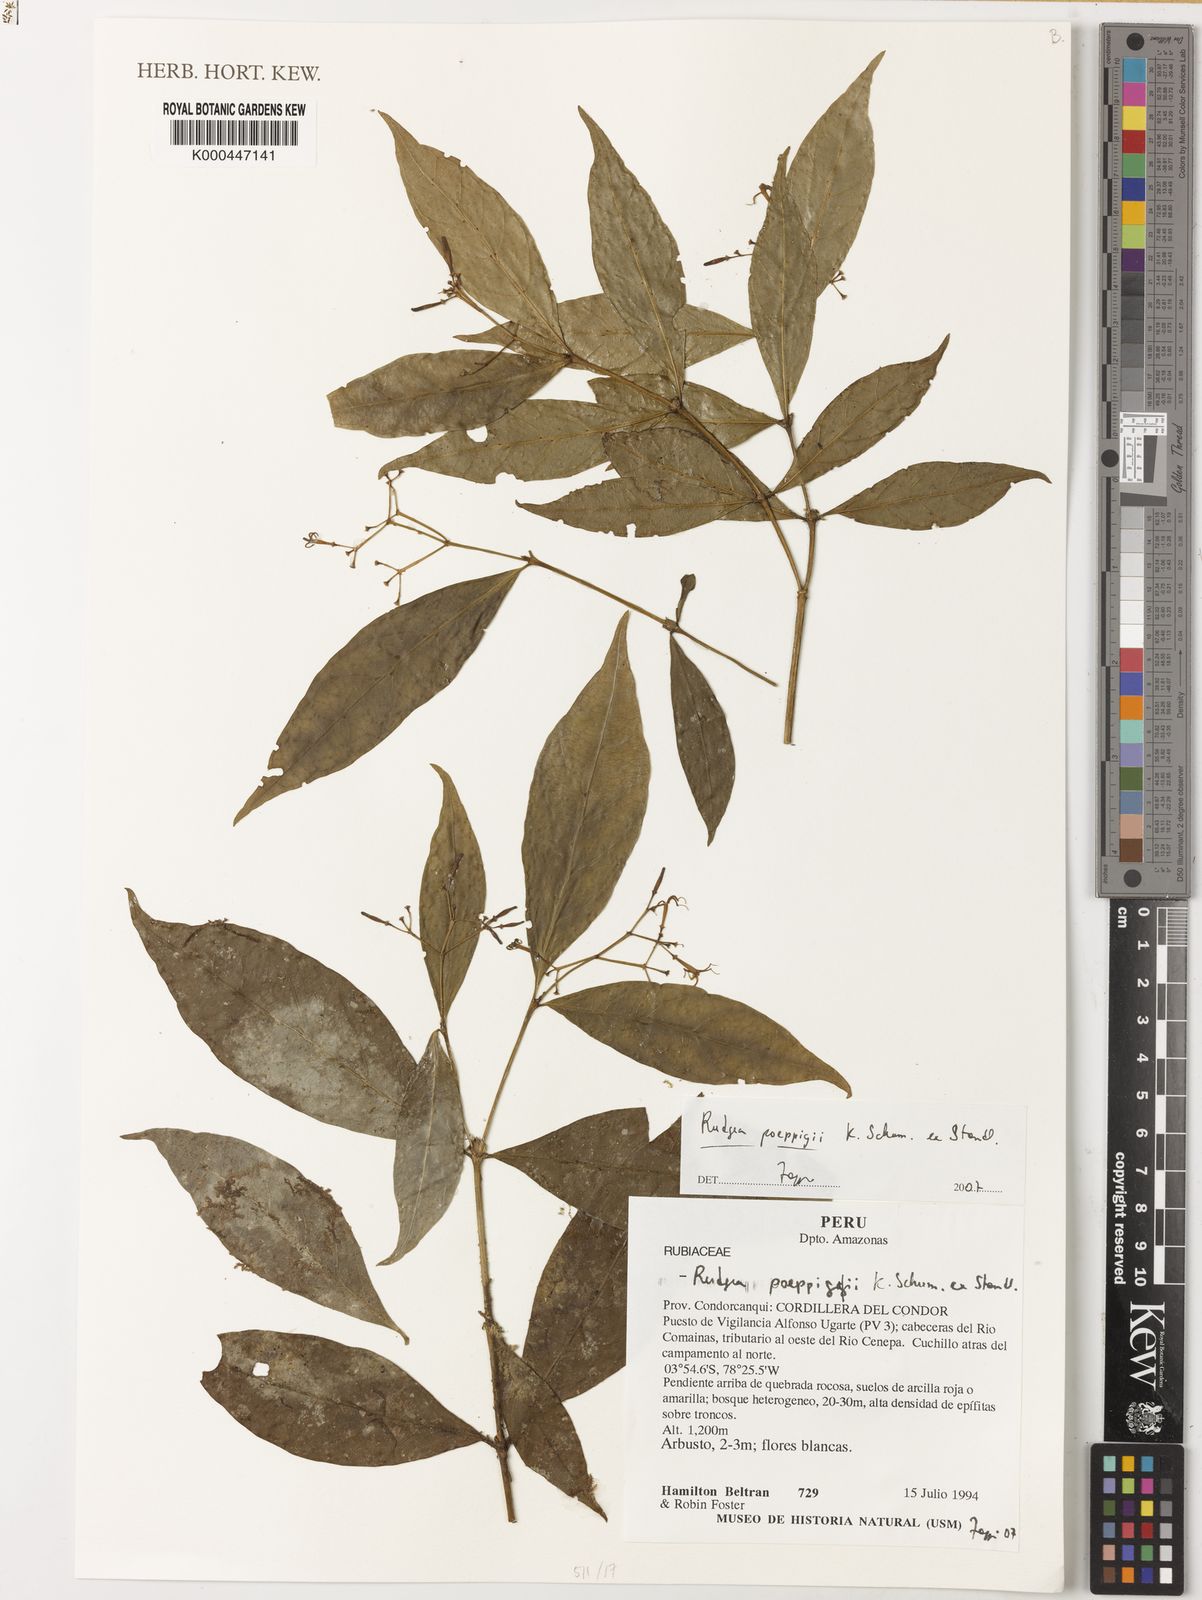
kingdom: Plantae
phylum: Tracheophyta
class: Magnoliopsida
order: Gentianales
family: Rubiaceae
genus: Rudgea
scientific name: Rudgea poeppigii
